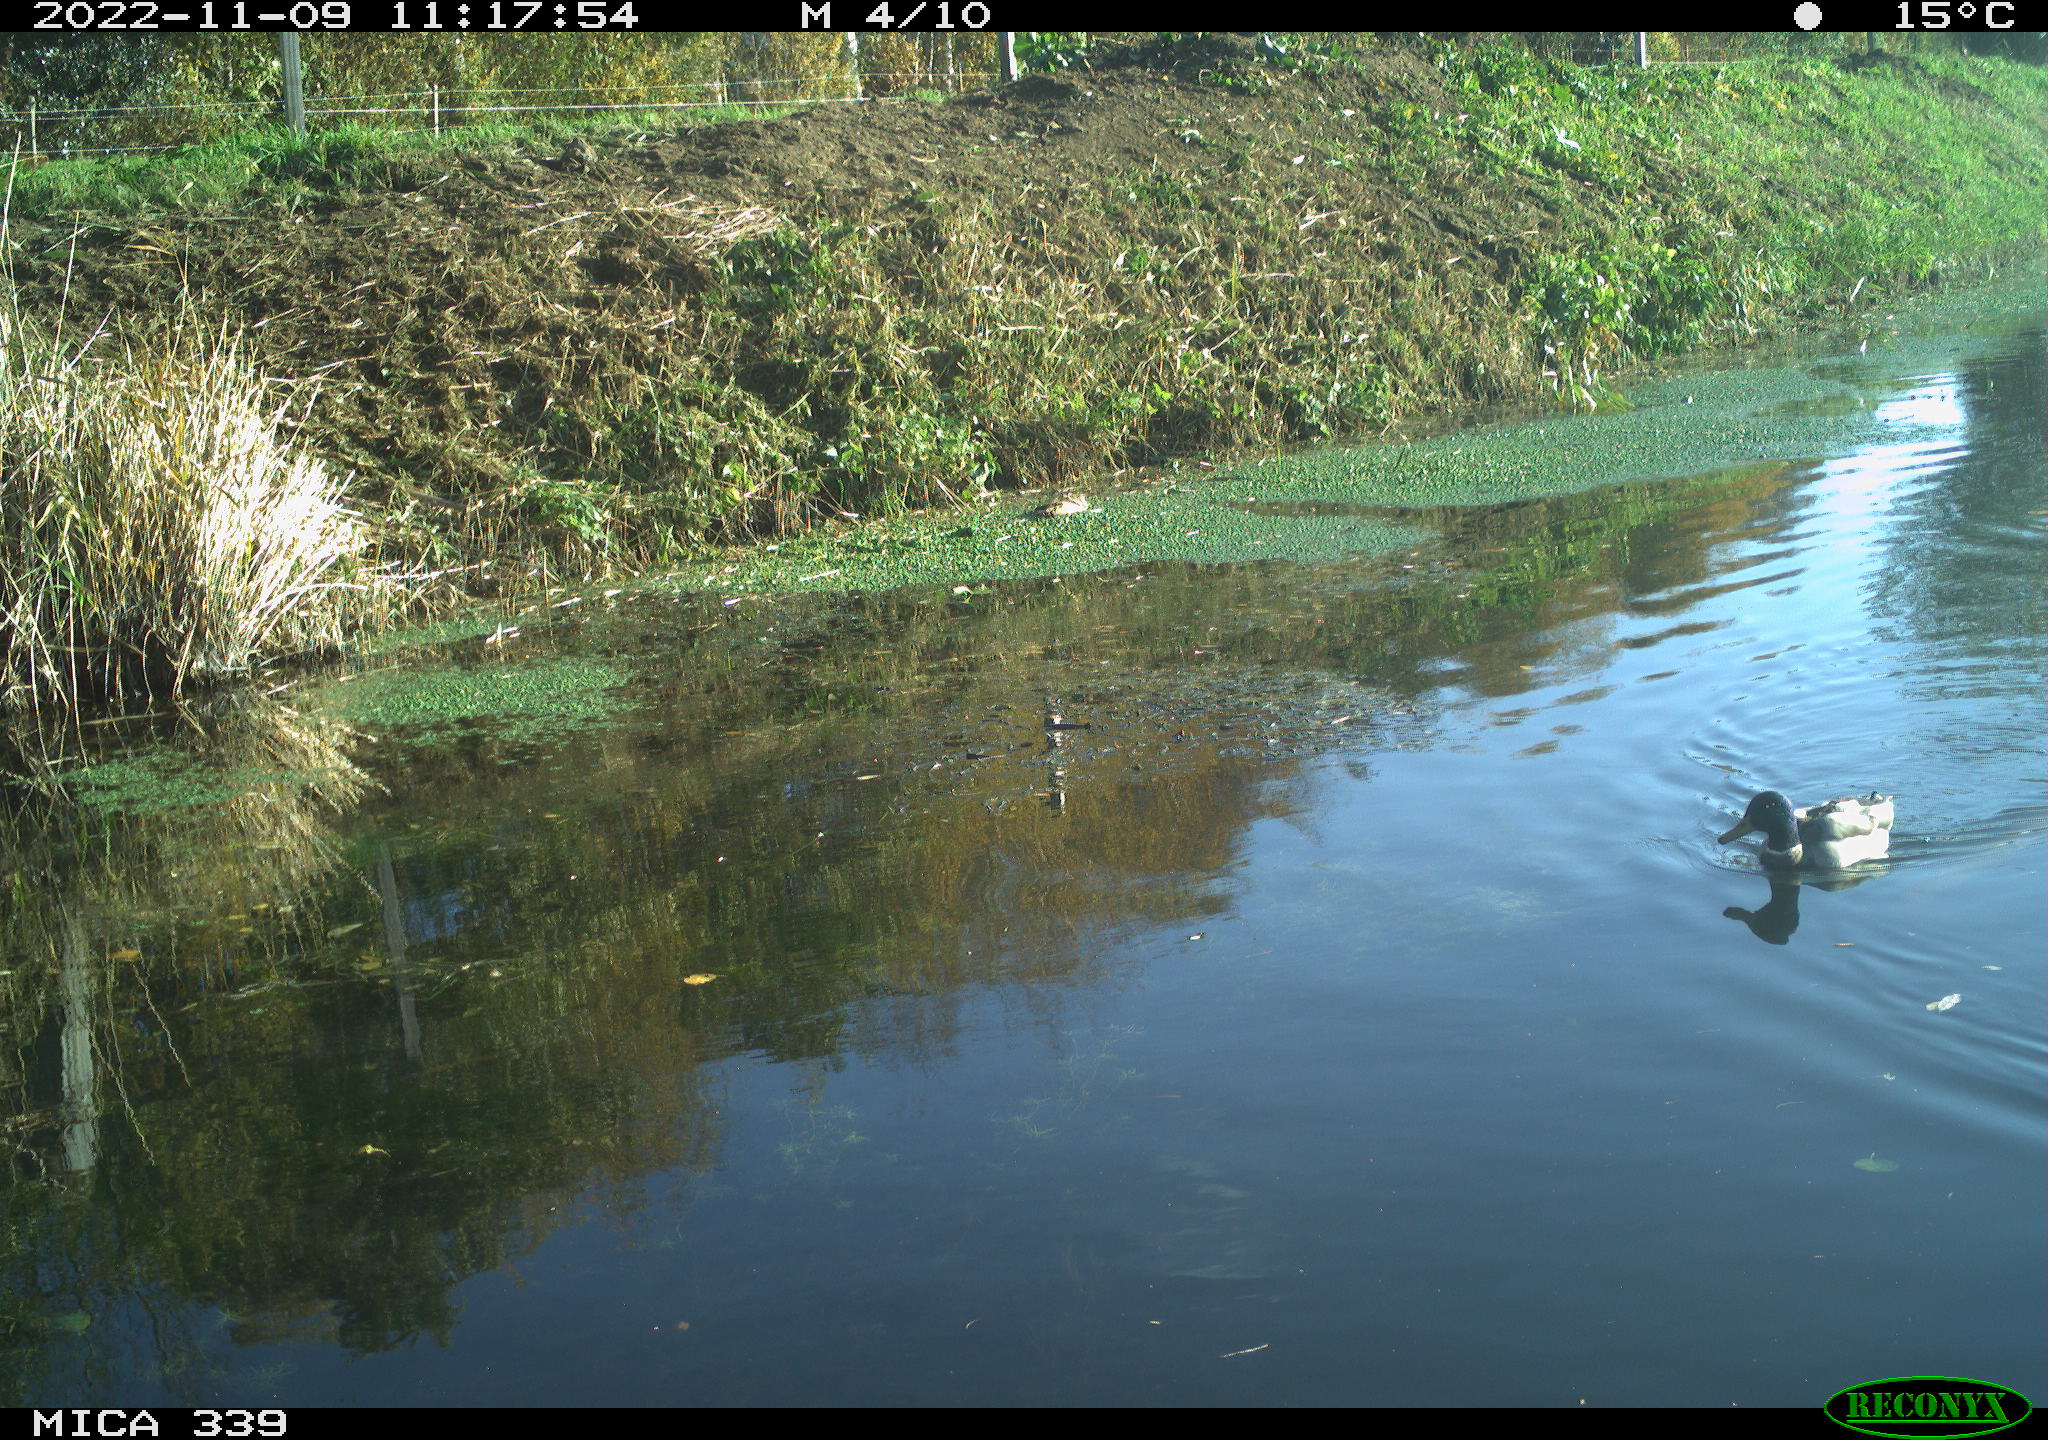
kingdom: Animalia
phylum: Chordata
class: Aves
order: Anseriformes
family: Anatidae
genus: Anas
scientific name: Anas platyrhynchos
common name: Mallard
